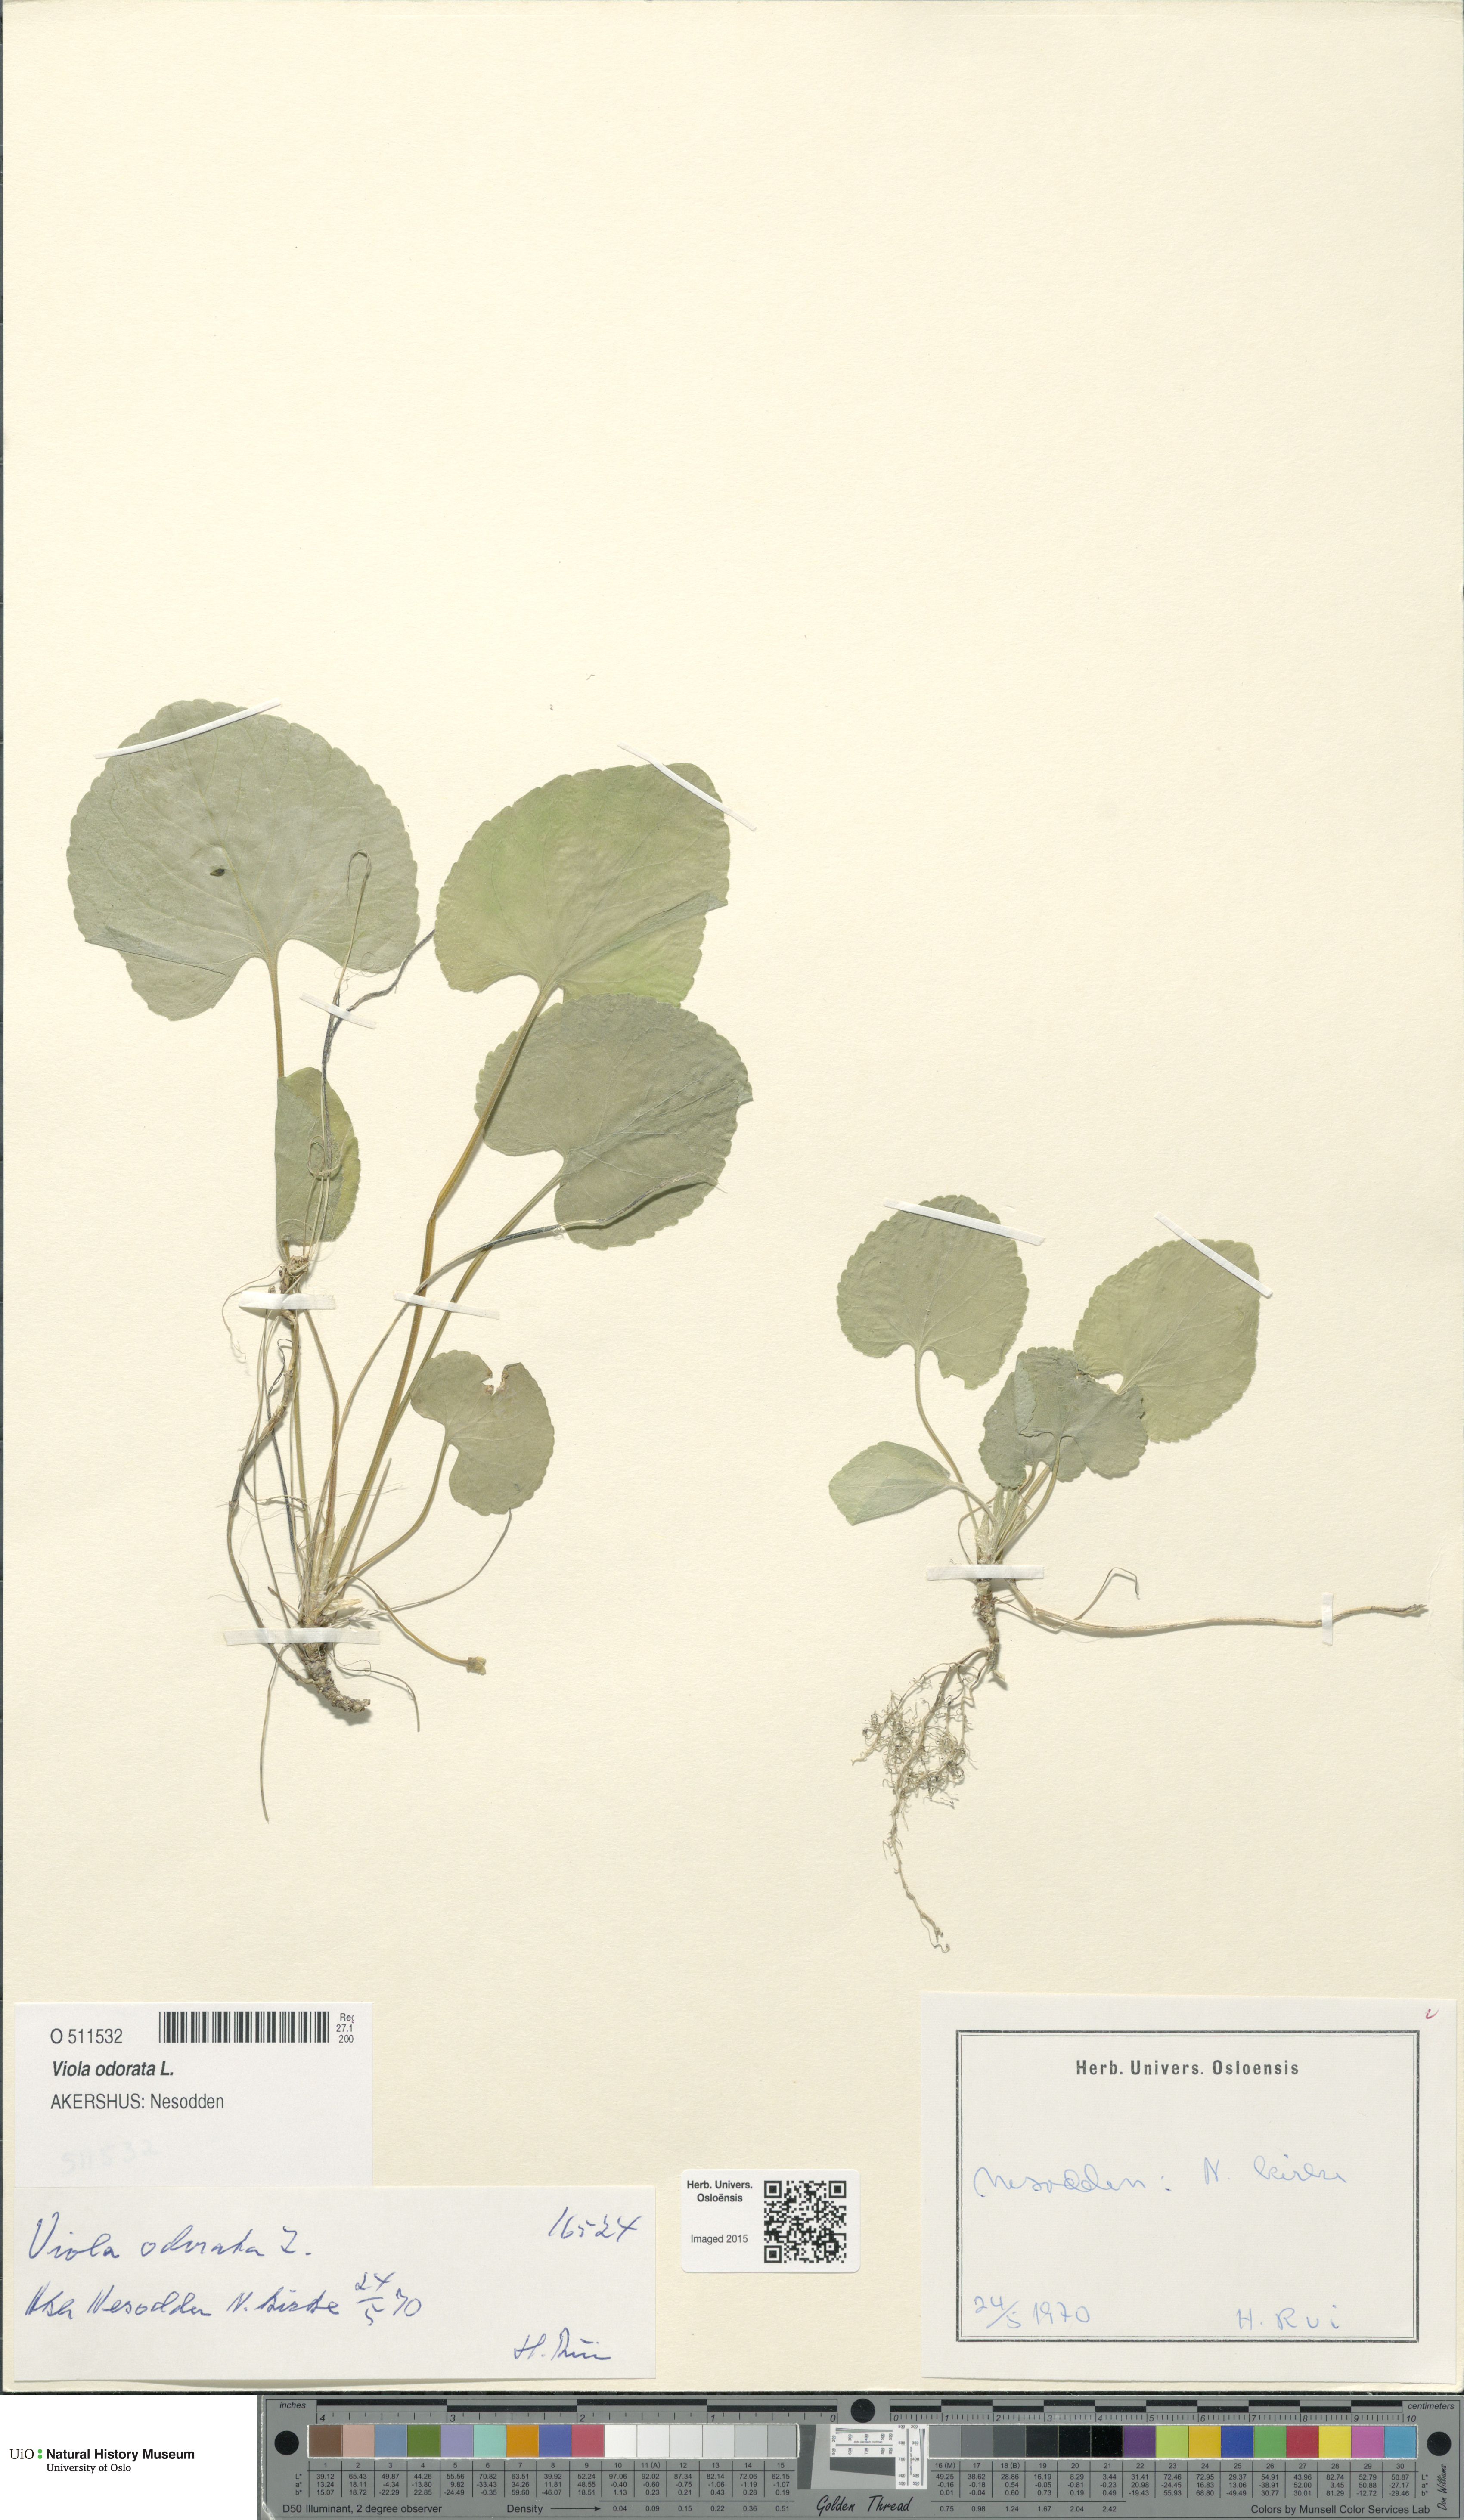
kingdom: Plantae
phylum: Tracheophyta
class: Magnoliopsida
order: Malpighiales
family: Violaceae
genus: Viola
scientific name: Viola odorata
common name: Sweet violet
